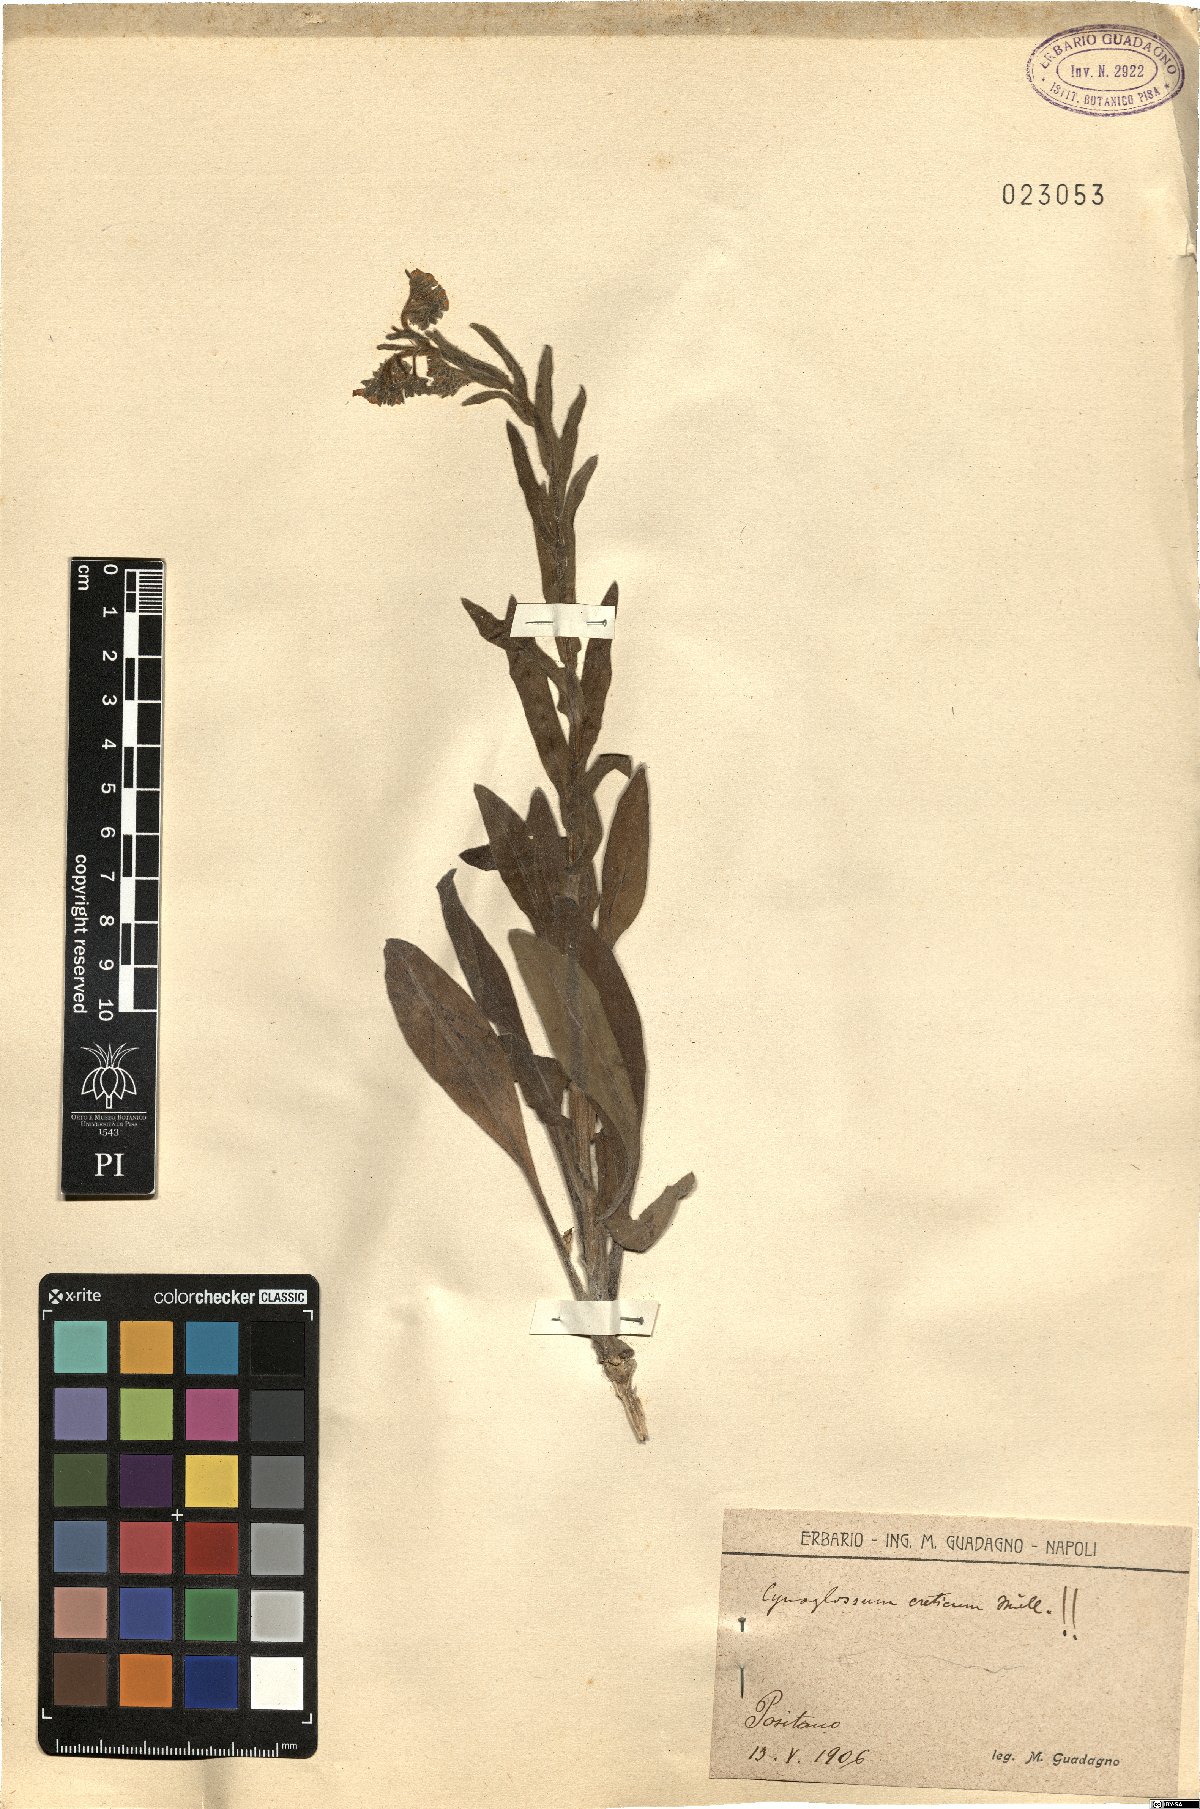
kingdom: Plantae
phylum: Tracheophyta
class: Magnoliopsida
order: Boraginales
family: Boraginaceae
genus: Cynoglossum
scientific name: Cynoglossum creticum
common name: Blue hound's tongue
